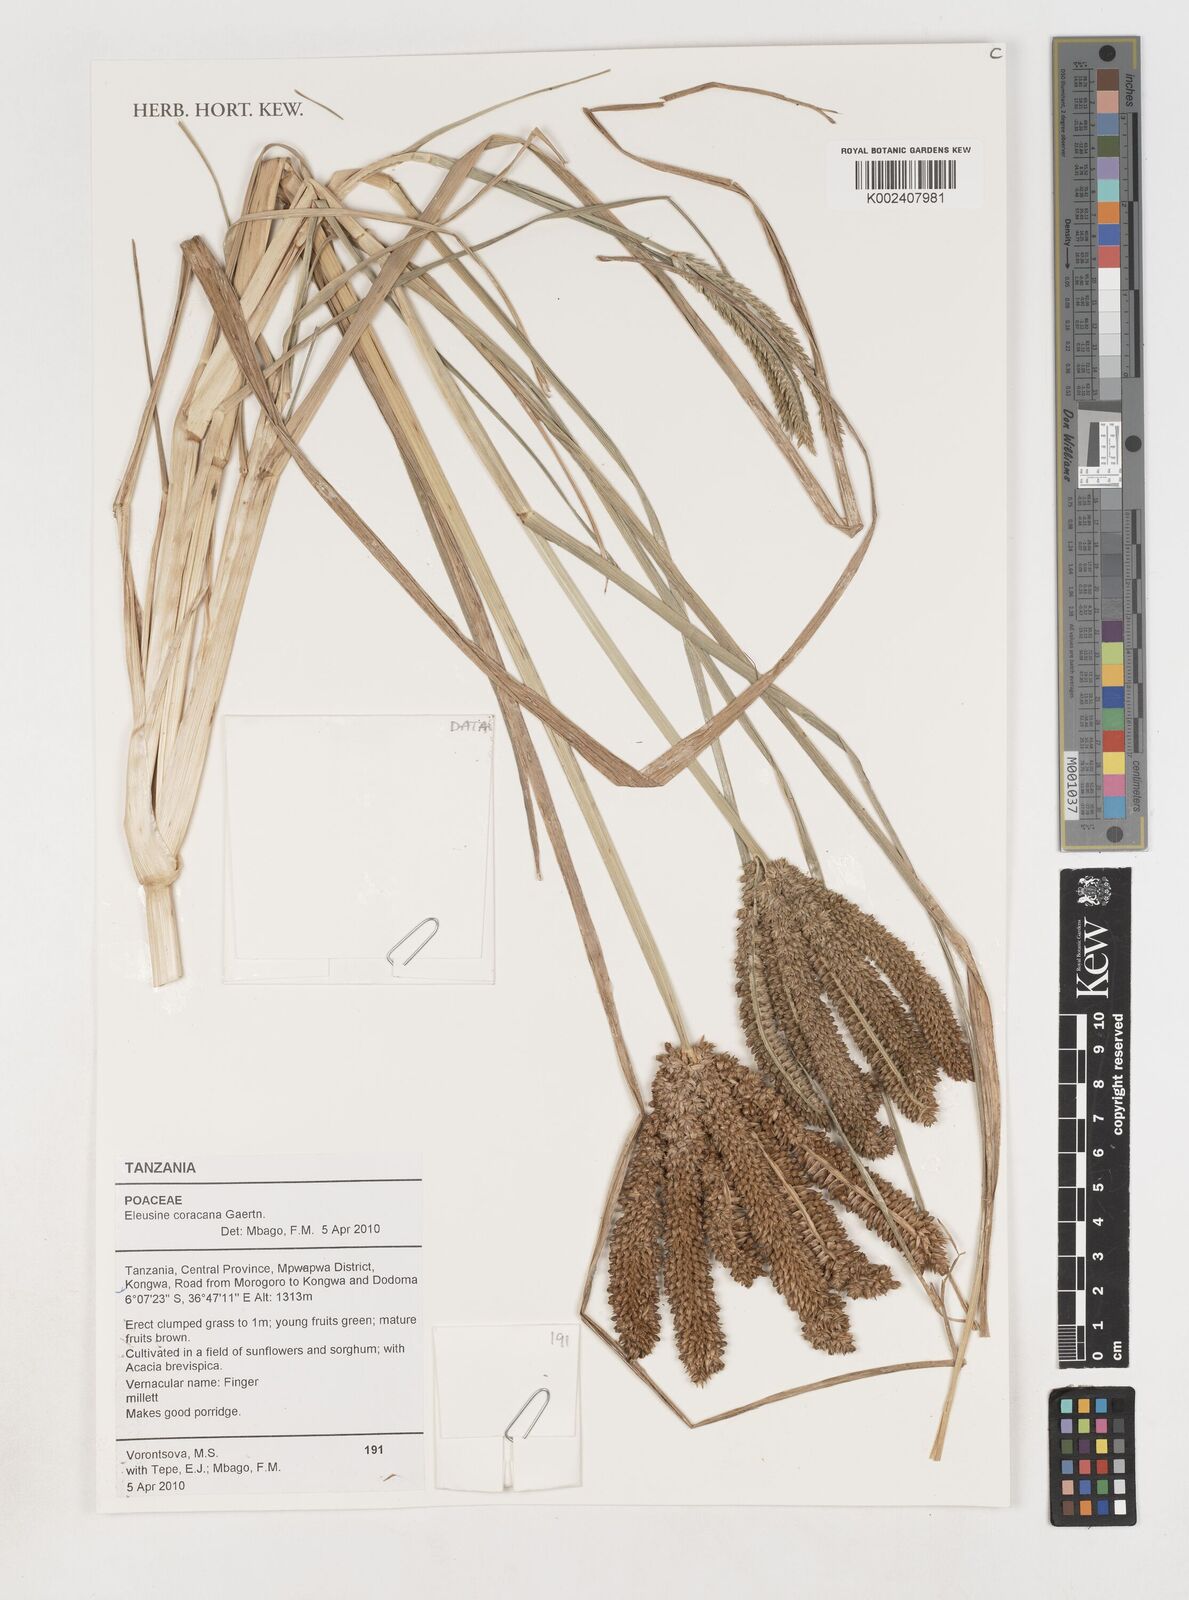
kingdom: Plantae
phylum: Tracheophyta
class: Liliopsida
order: Poales
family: Poaceae
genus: Eleusine
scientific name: Eleusine coracana
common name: Finger millet
